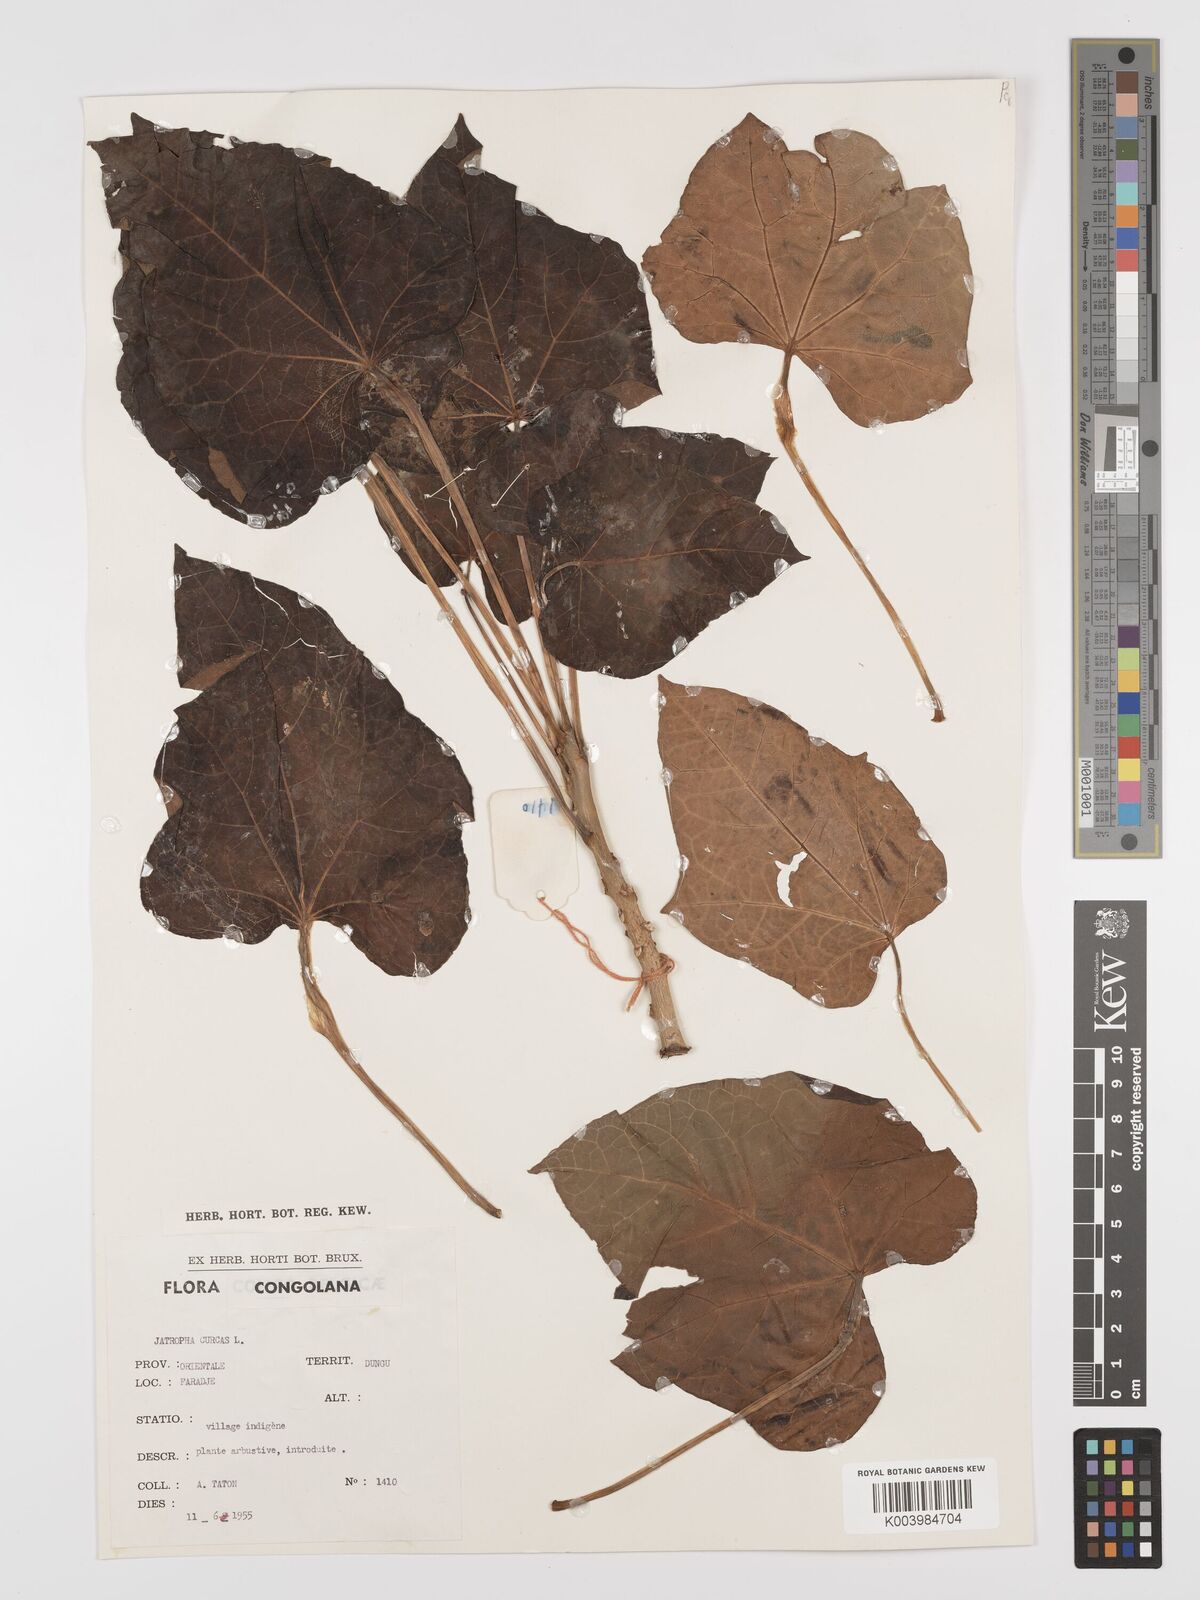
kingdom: Plantae
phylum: Tracheophyta
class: Magnoliopsida
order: Malpighiales
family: Euphorbiaceae
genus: Jatropha
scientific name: Jatropha curcas
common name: Barbados nut
